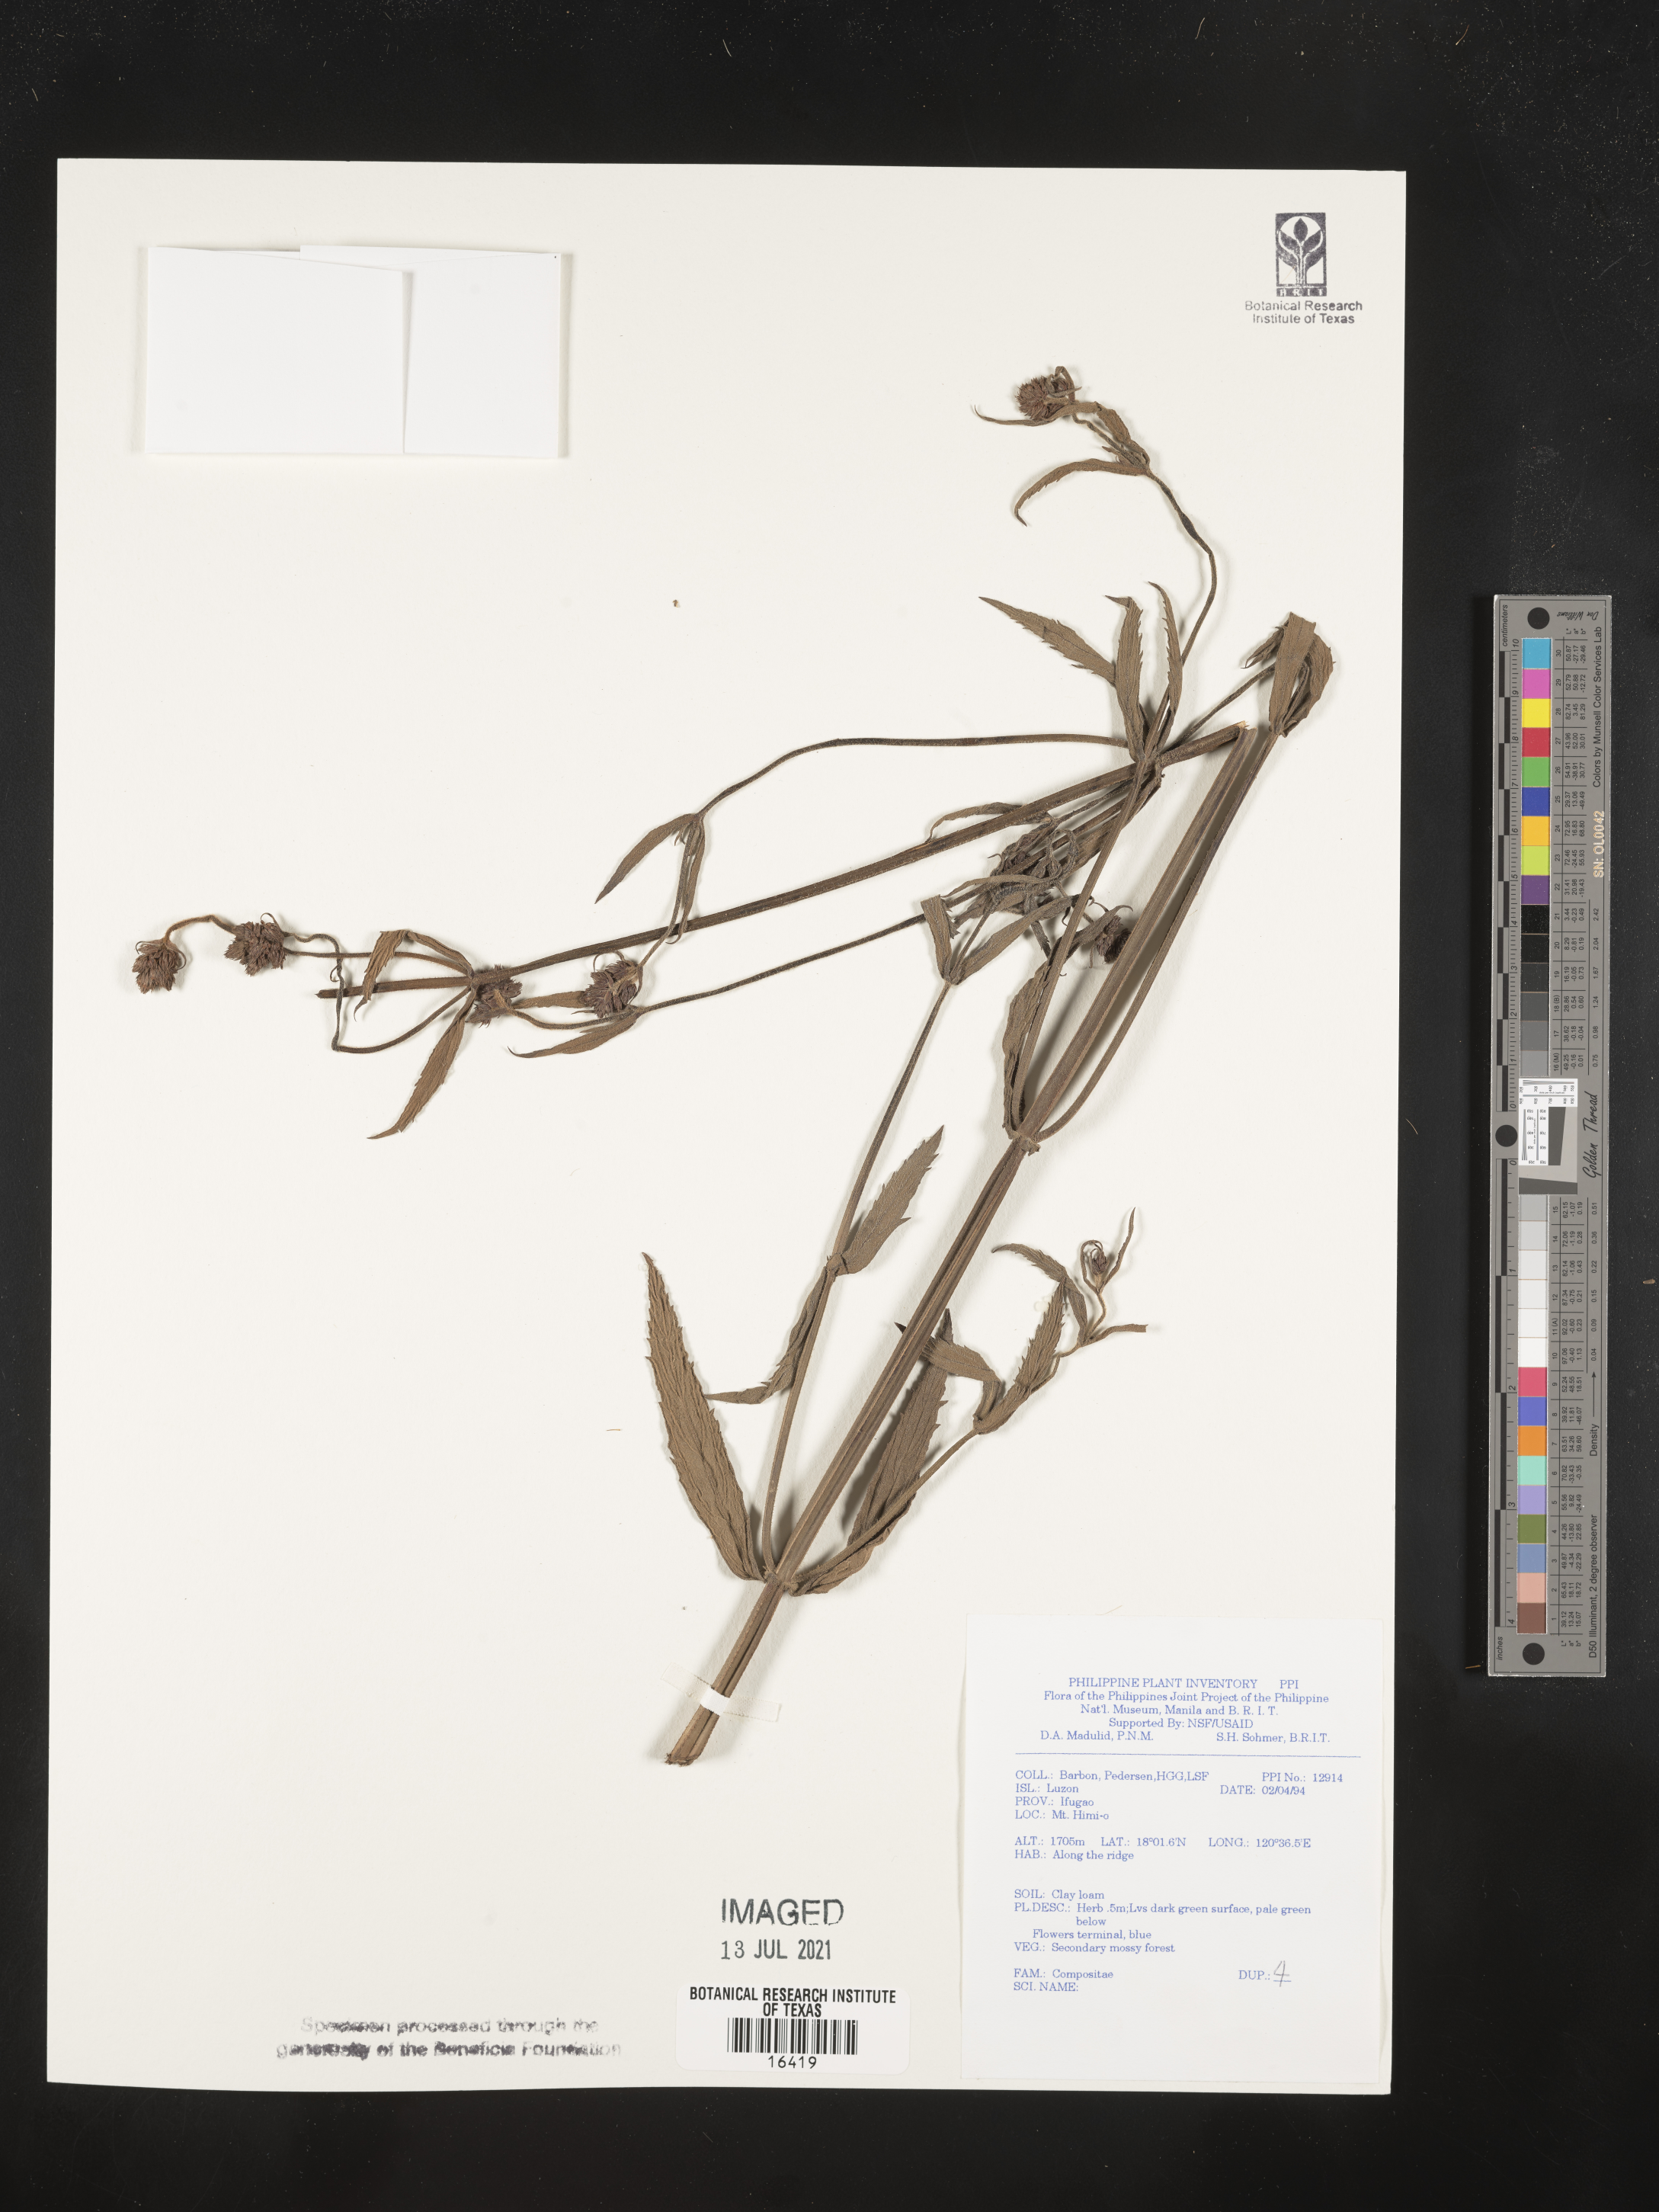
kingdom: Plantae
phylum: Tracheophyta
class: Magnoliopsida
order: Asterales
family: Asteraceae
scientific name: Asteraceae
